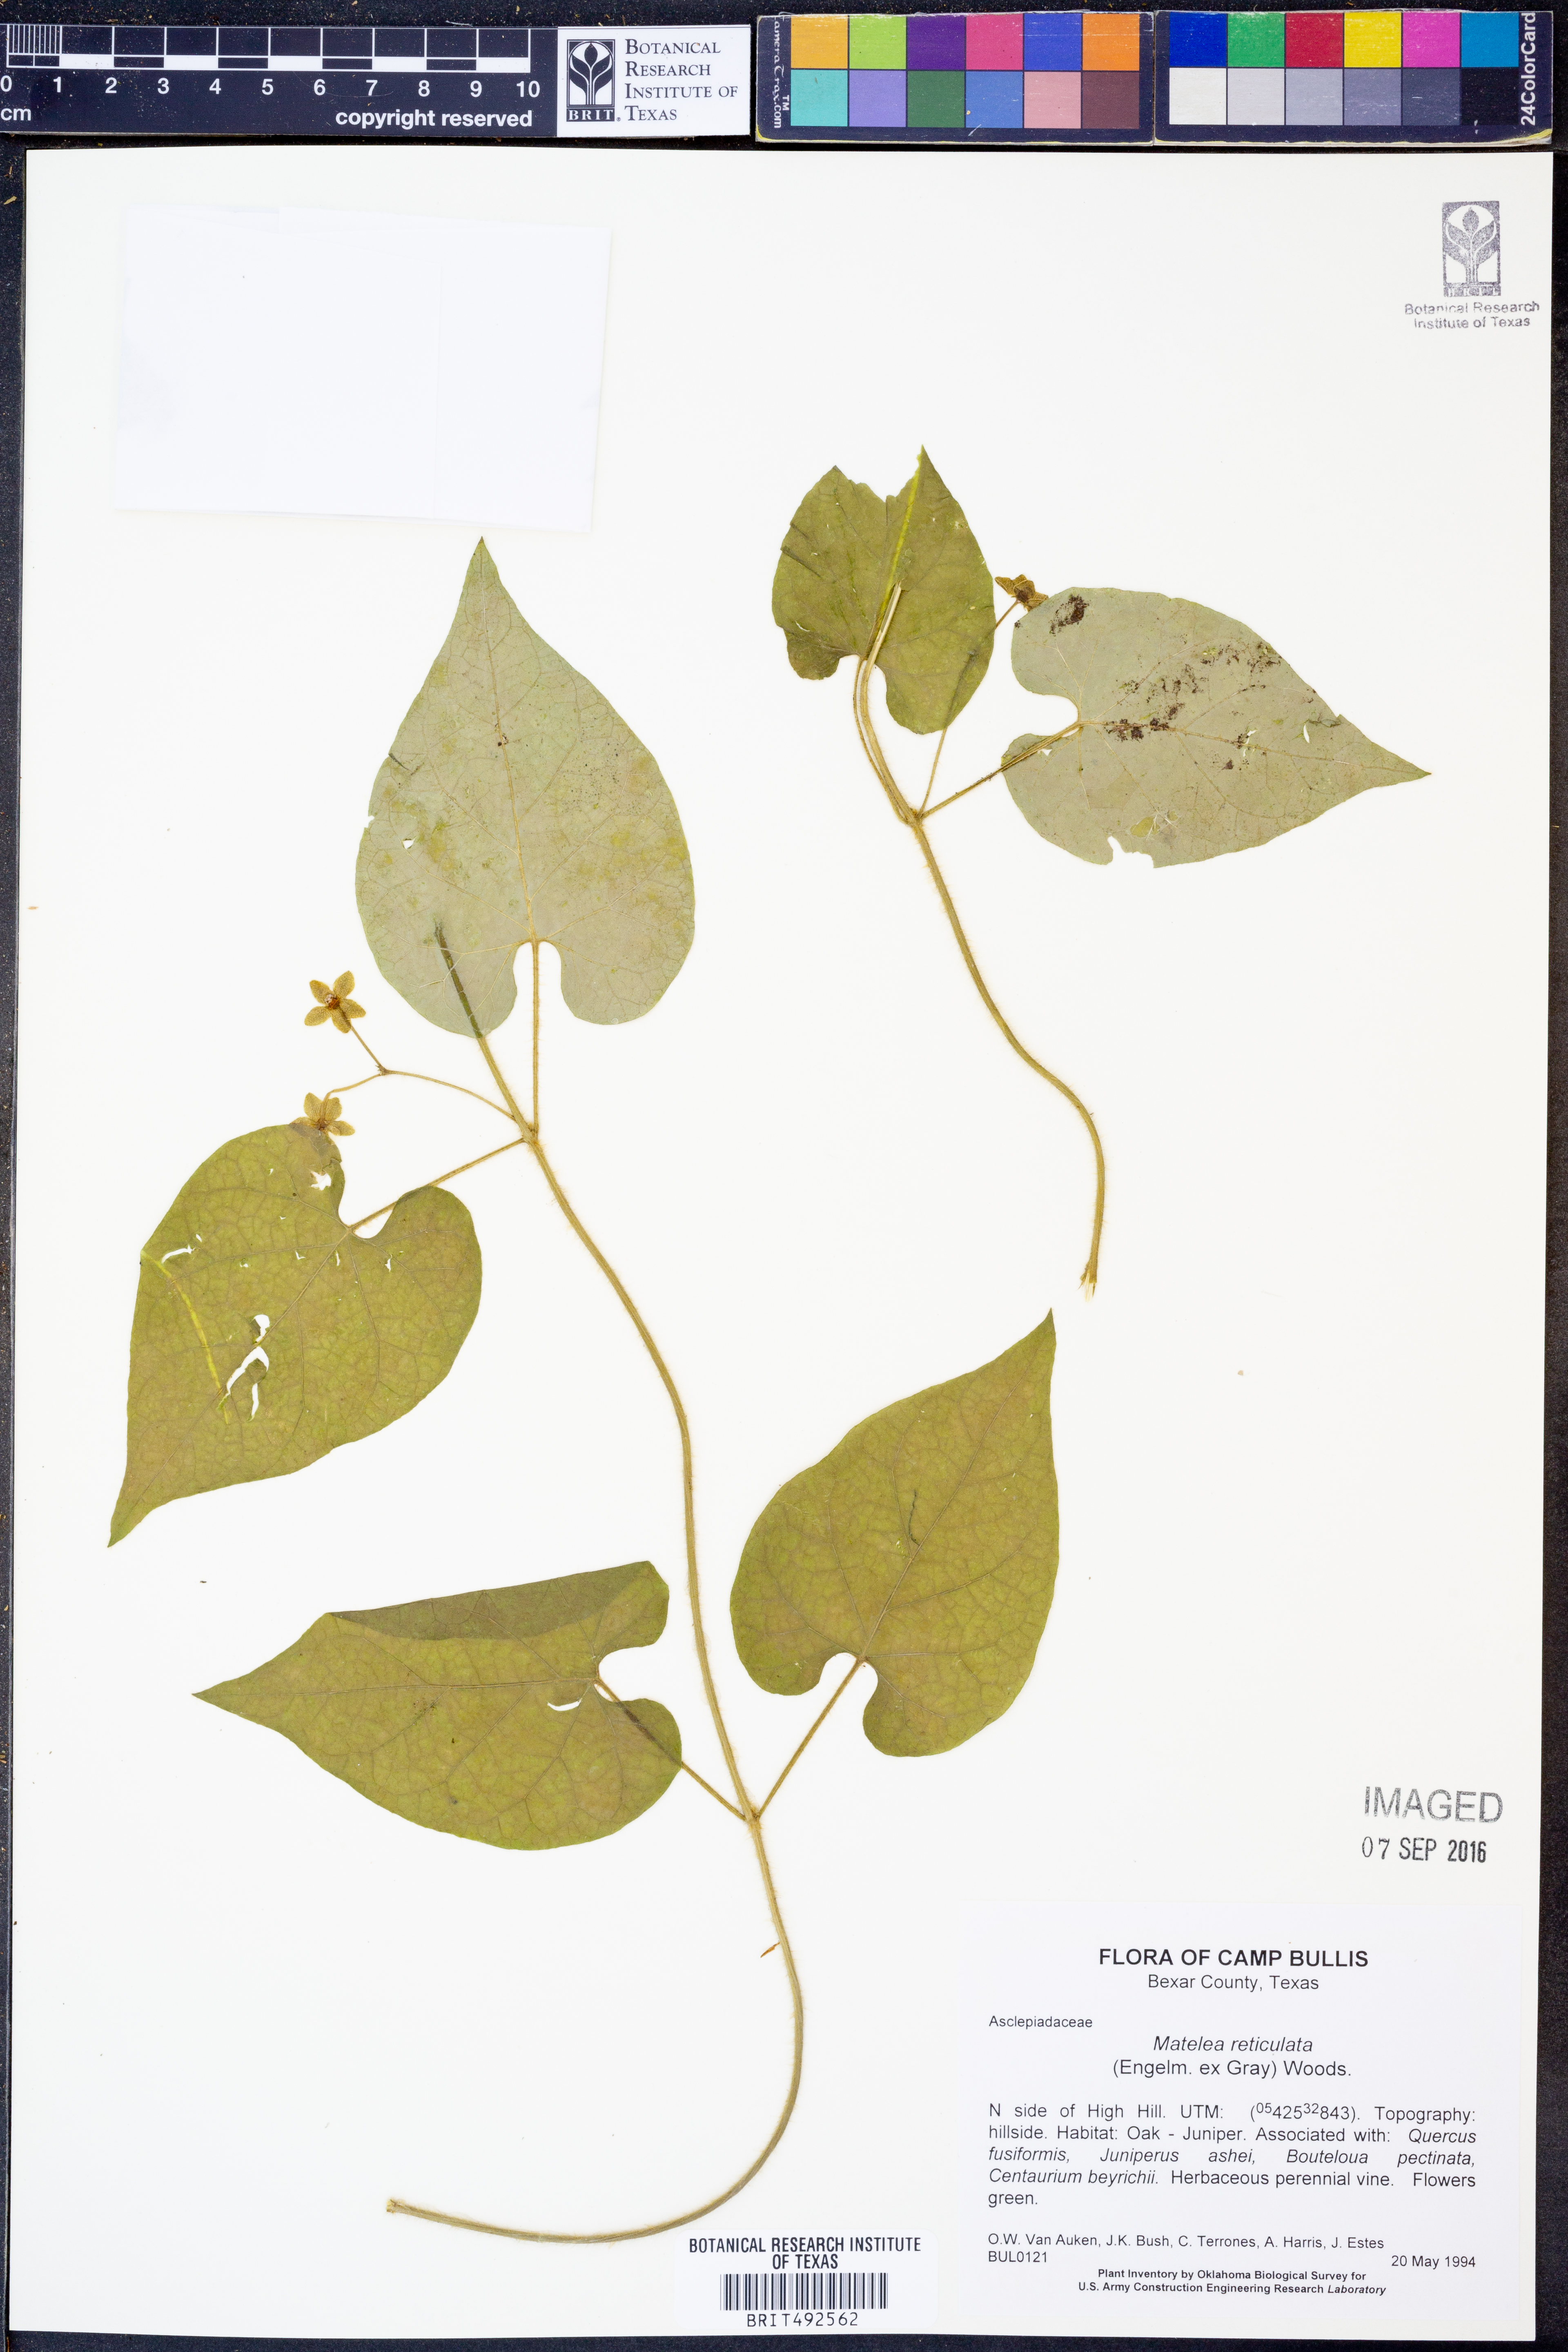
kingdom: Plantae
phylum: Tracheophyta
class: Magnoliopsida
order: Gentianales
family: Apocynaceae
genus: Dictyanthus
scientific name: Dictyanthus reticulatus
